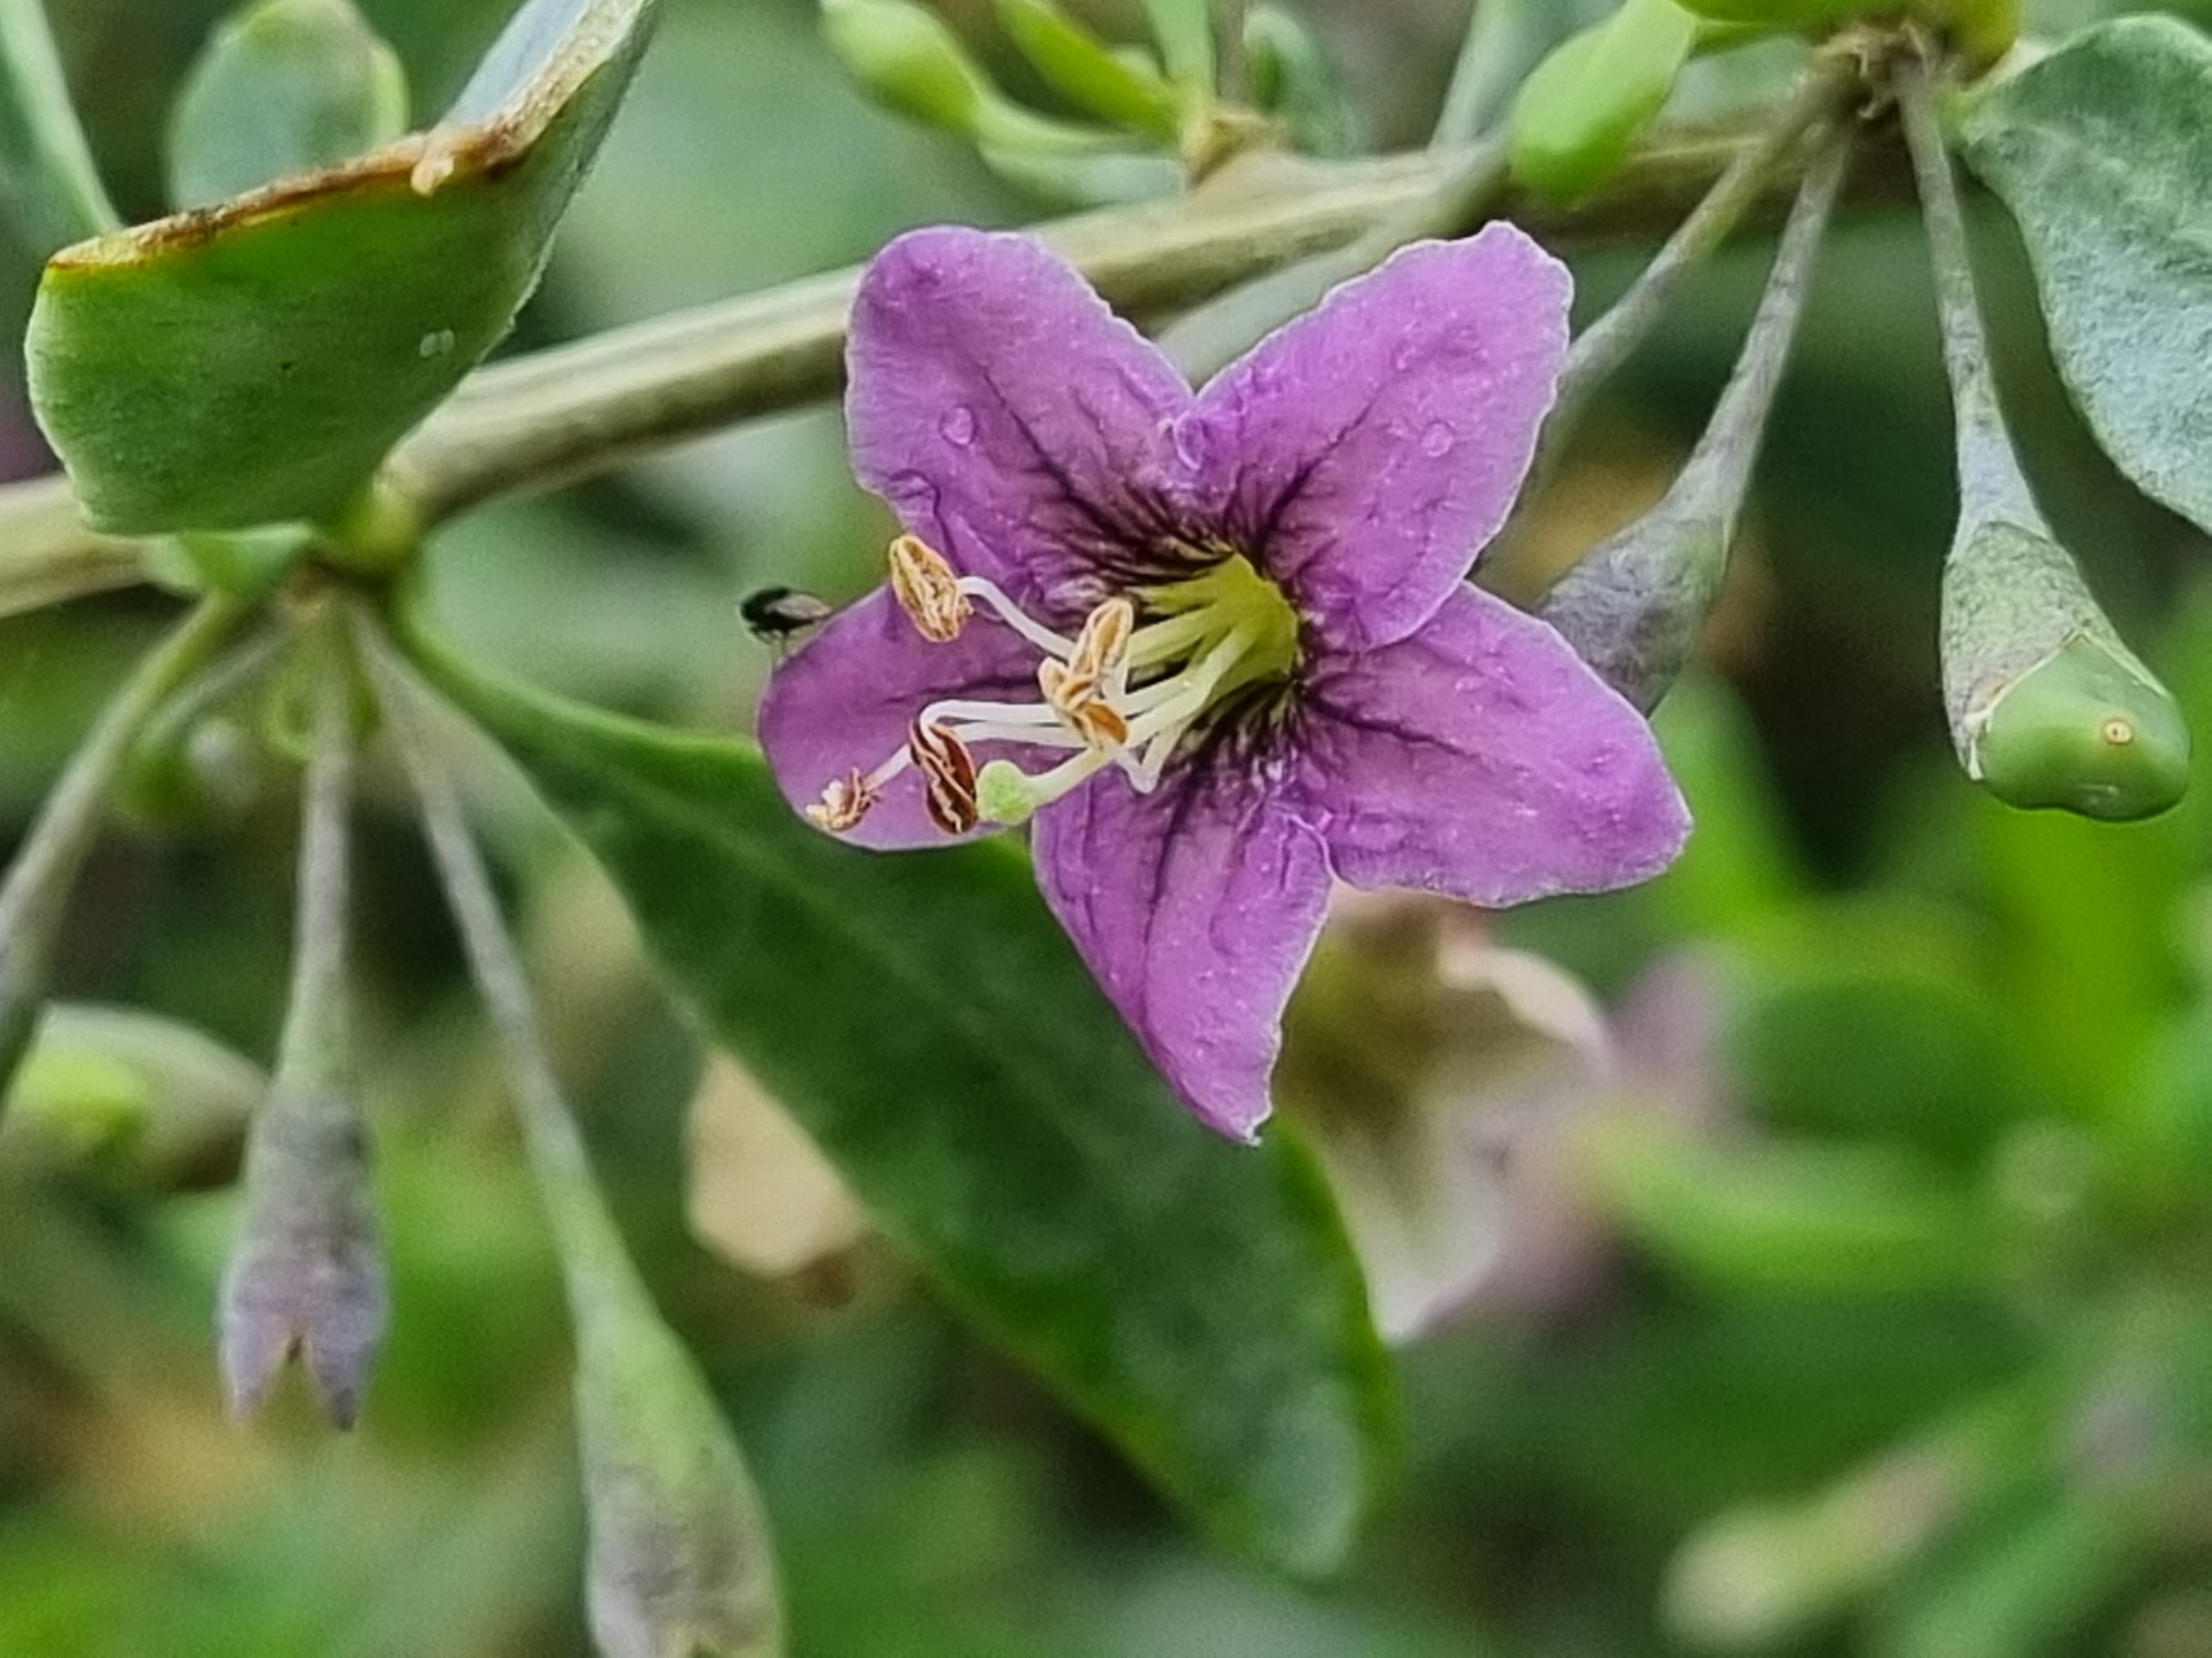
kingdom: Plantae
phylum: Tracheophyta
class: Magnoliopsida
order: Solanales
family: Solanaceae
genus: Lycium
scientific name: Lycium barbarum
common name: Bukketorn
